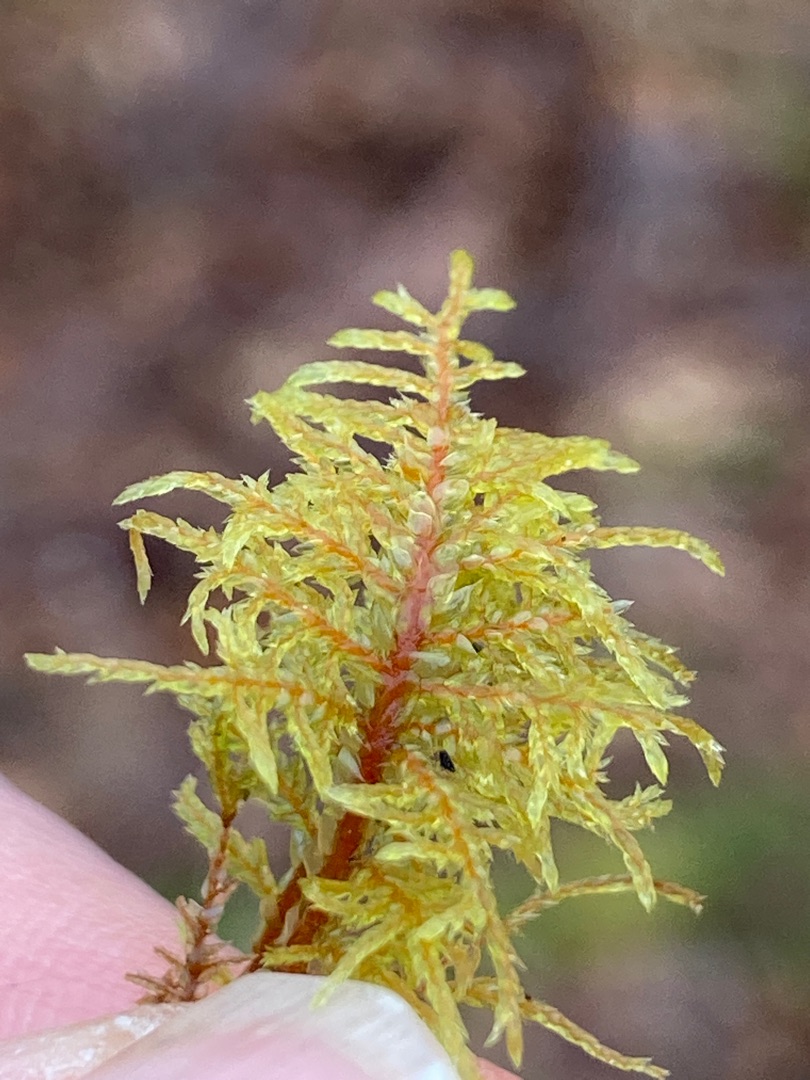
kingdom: Plantae
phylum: Bryophyta
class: Bryopsida
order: Hypnales
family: Hylocomiaceae
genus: Hylocomium
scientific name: Hylocomium splendens
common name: Almindelig etagemos
